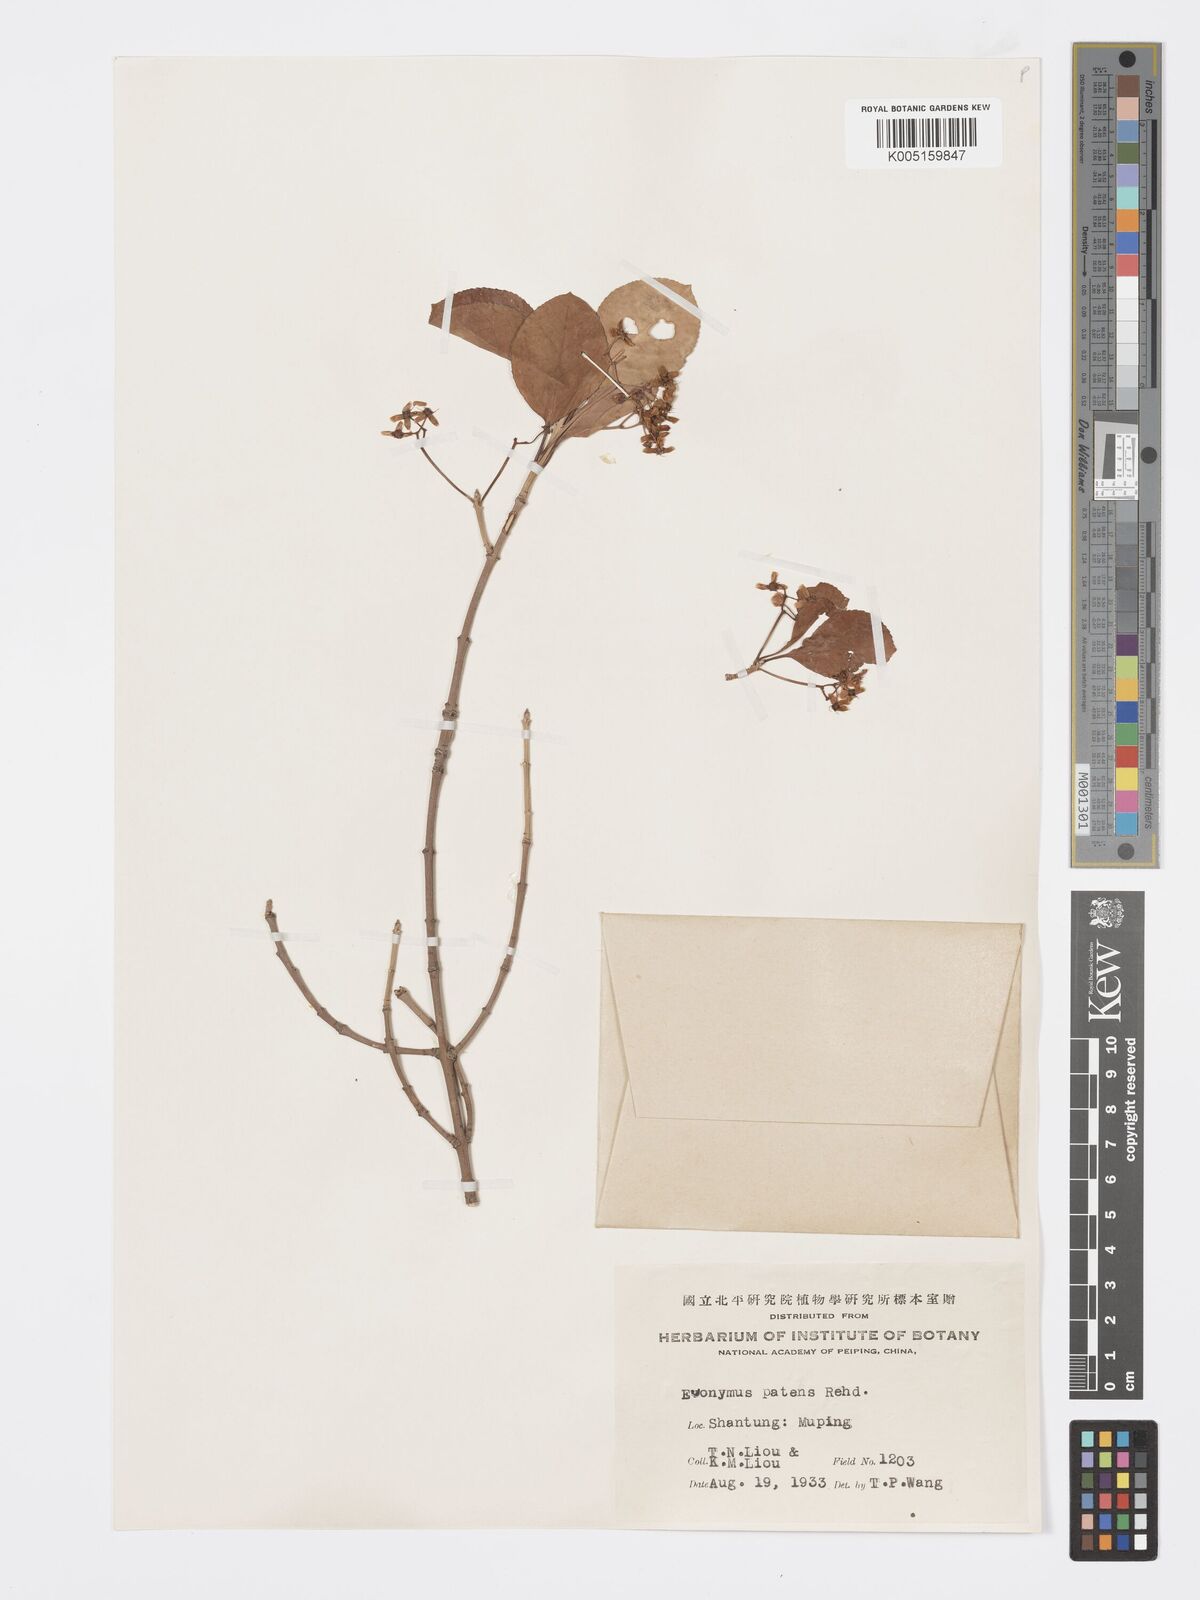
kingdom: Plantae
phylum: Tracheophyta
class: Magnoliopsida
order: Celastrales
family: Celastraceae
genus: Euonymus
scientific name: Euonymus fortunei
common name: Climbing euonymus
